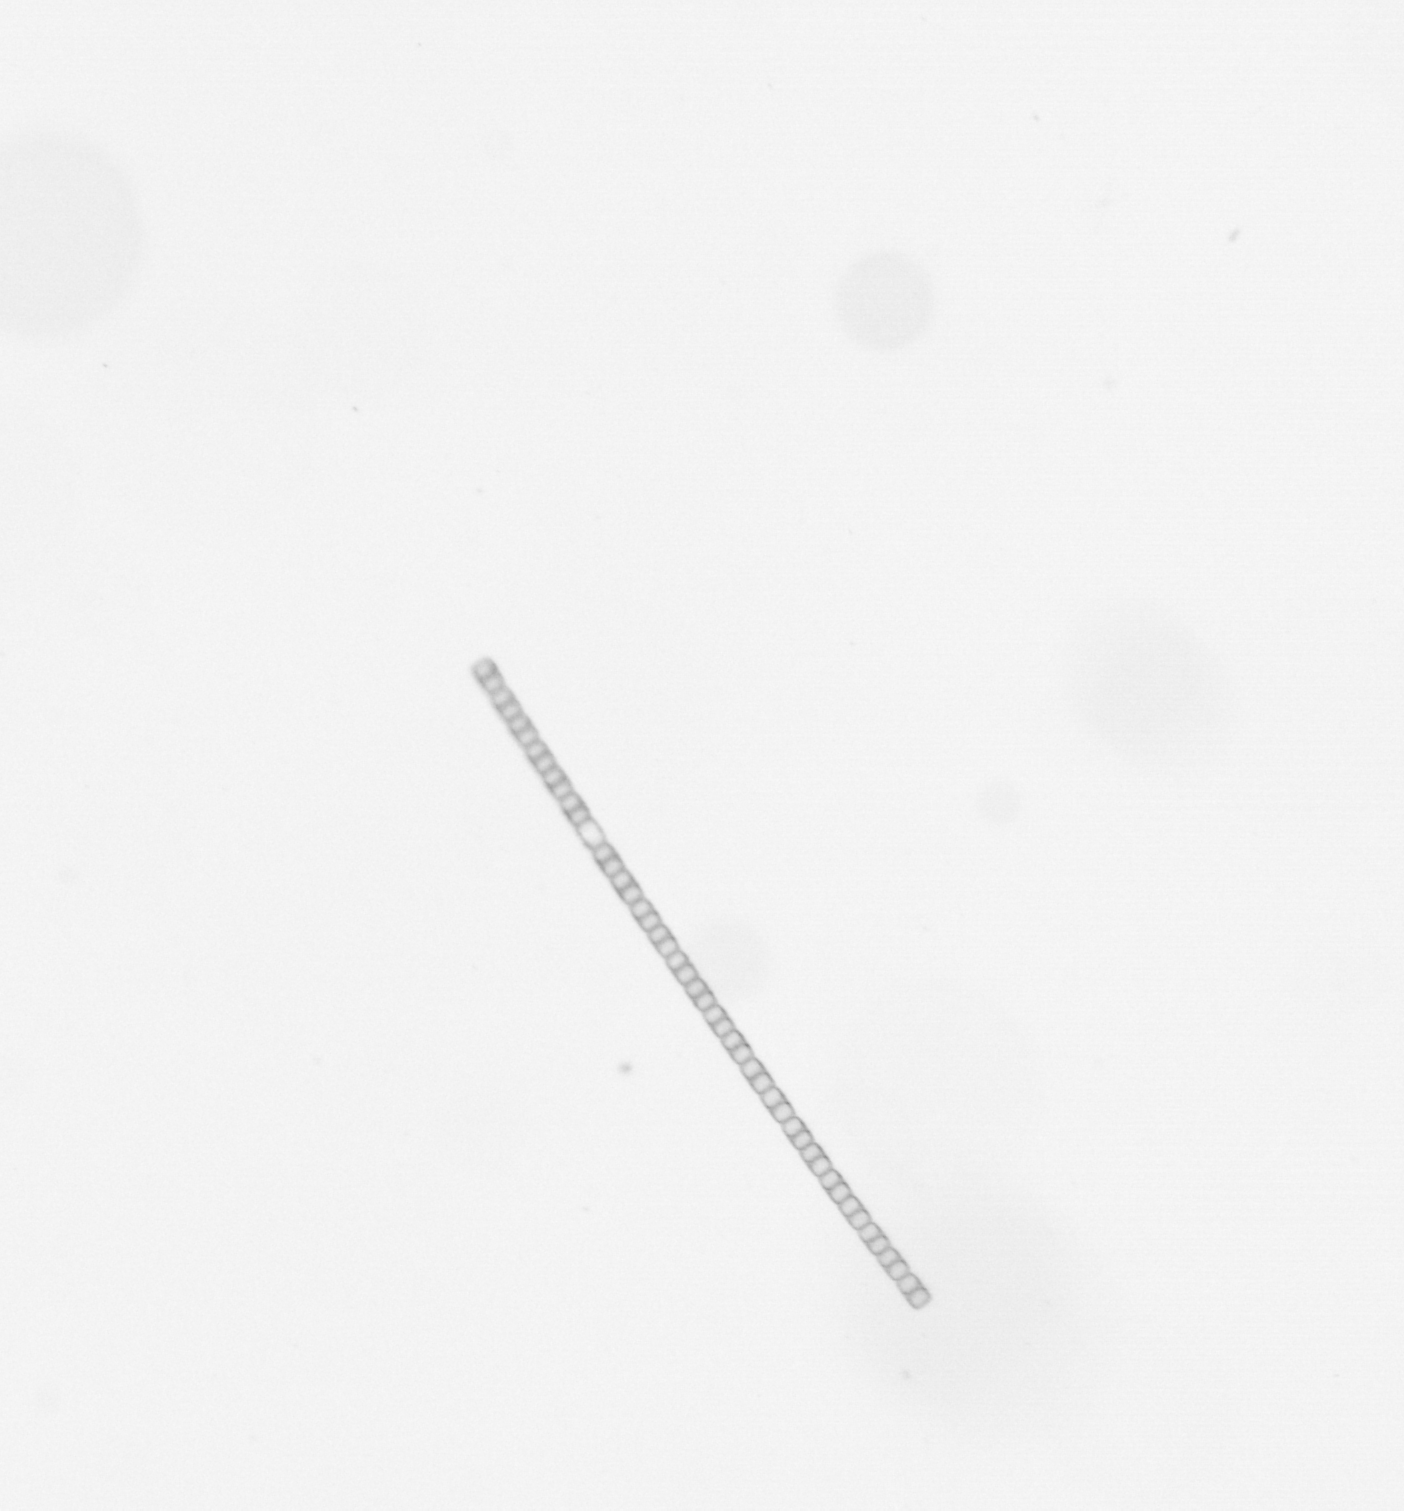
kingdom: Chromista
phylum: Ochrophyta
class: Bacillariophyceae
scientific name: Bacillariophyceae
